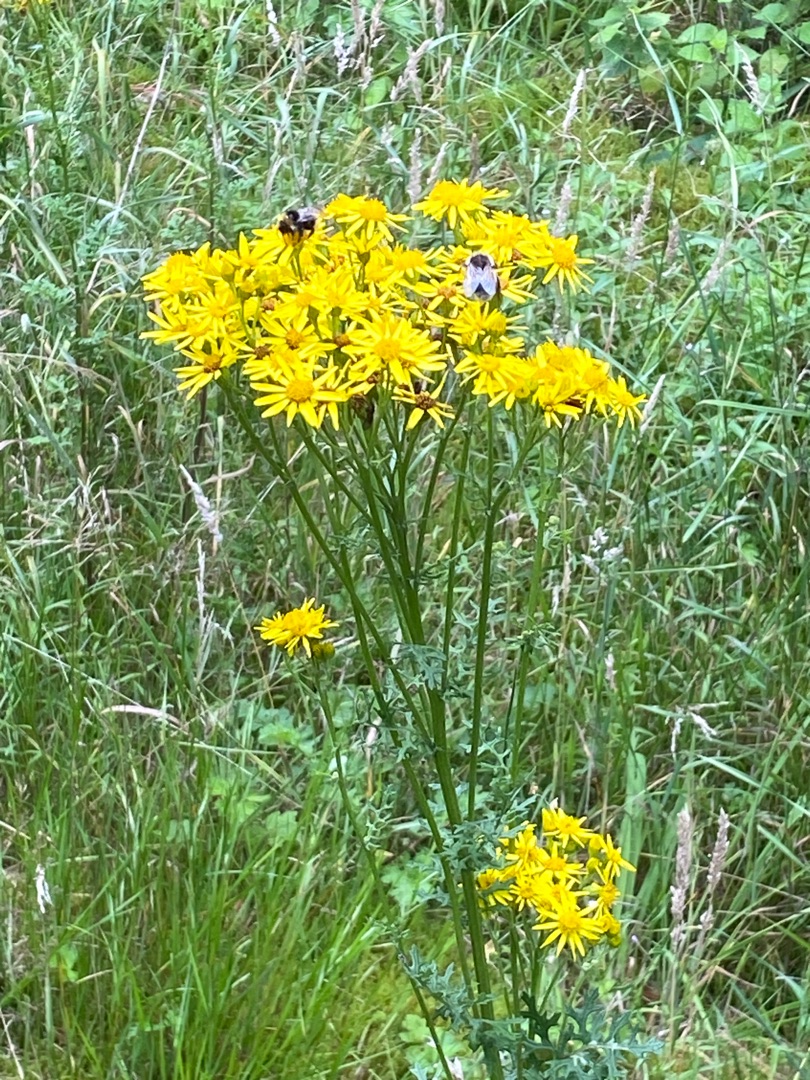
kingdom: Plantae
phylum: Tracheophyta
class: Magnoliopsida
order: Asterales
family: Asteraceae
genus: Jacobaea
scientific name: Jacobaea vulgaris
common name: Eng-brandbæger
